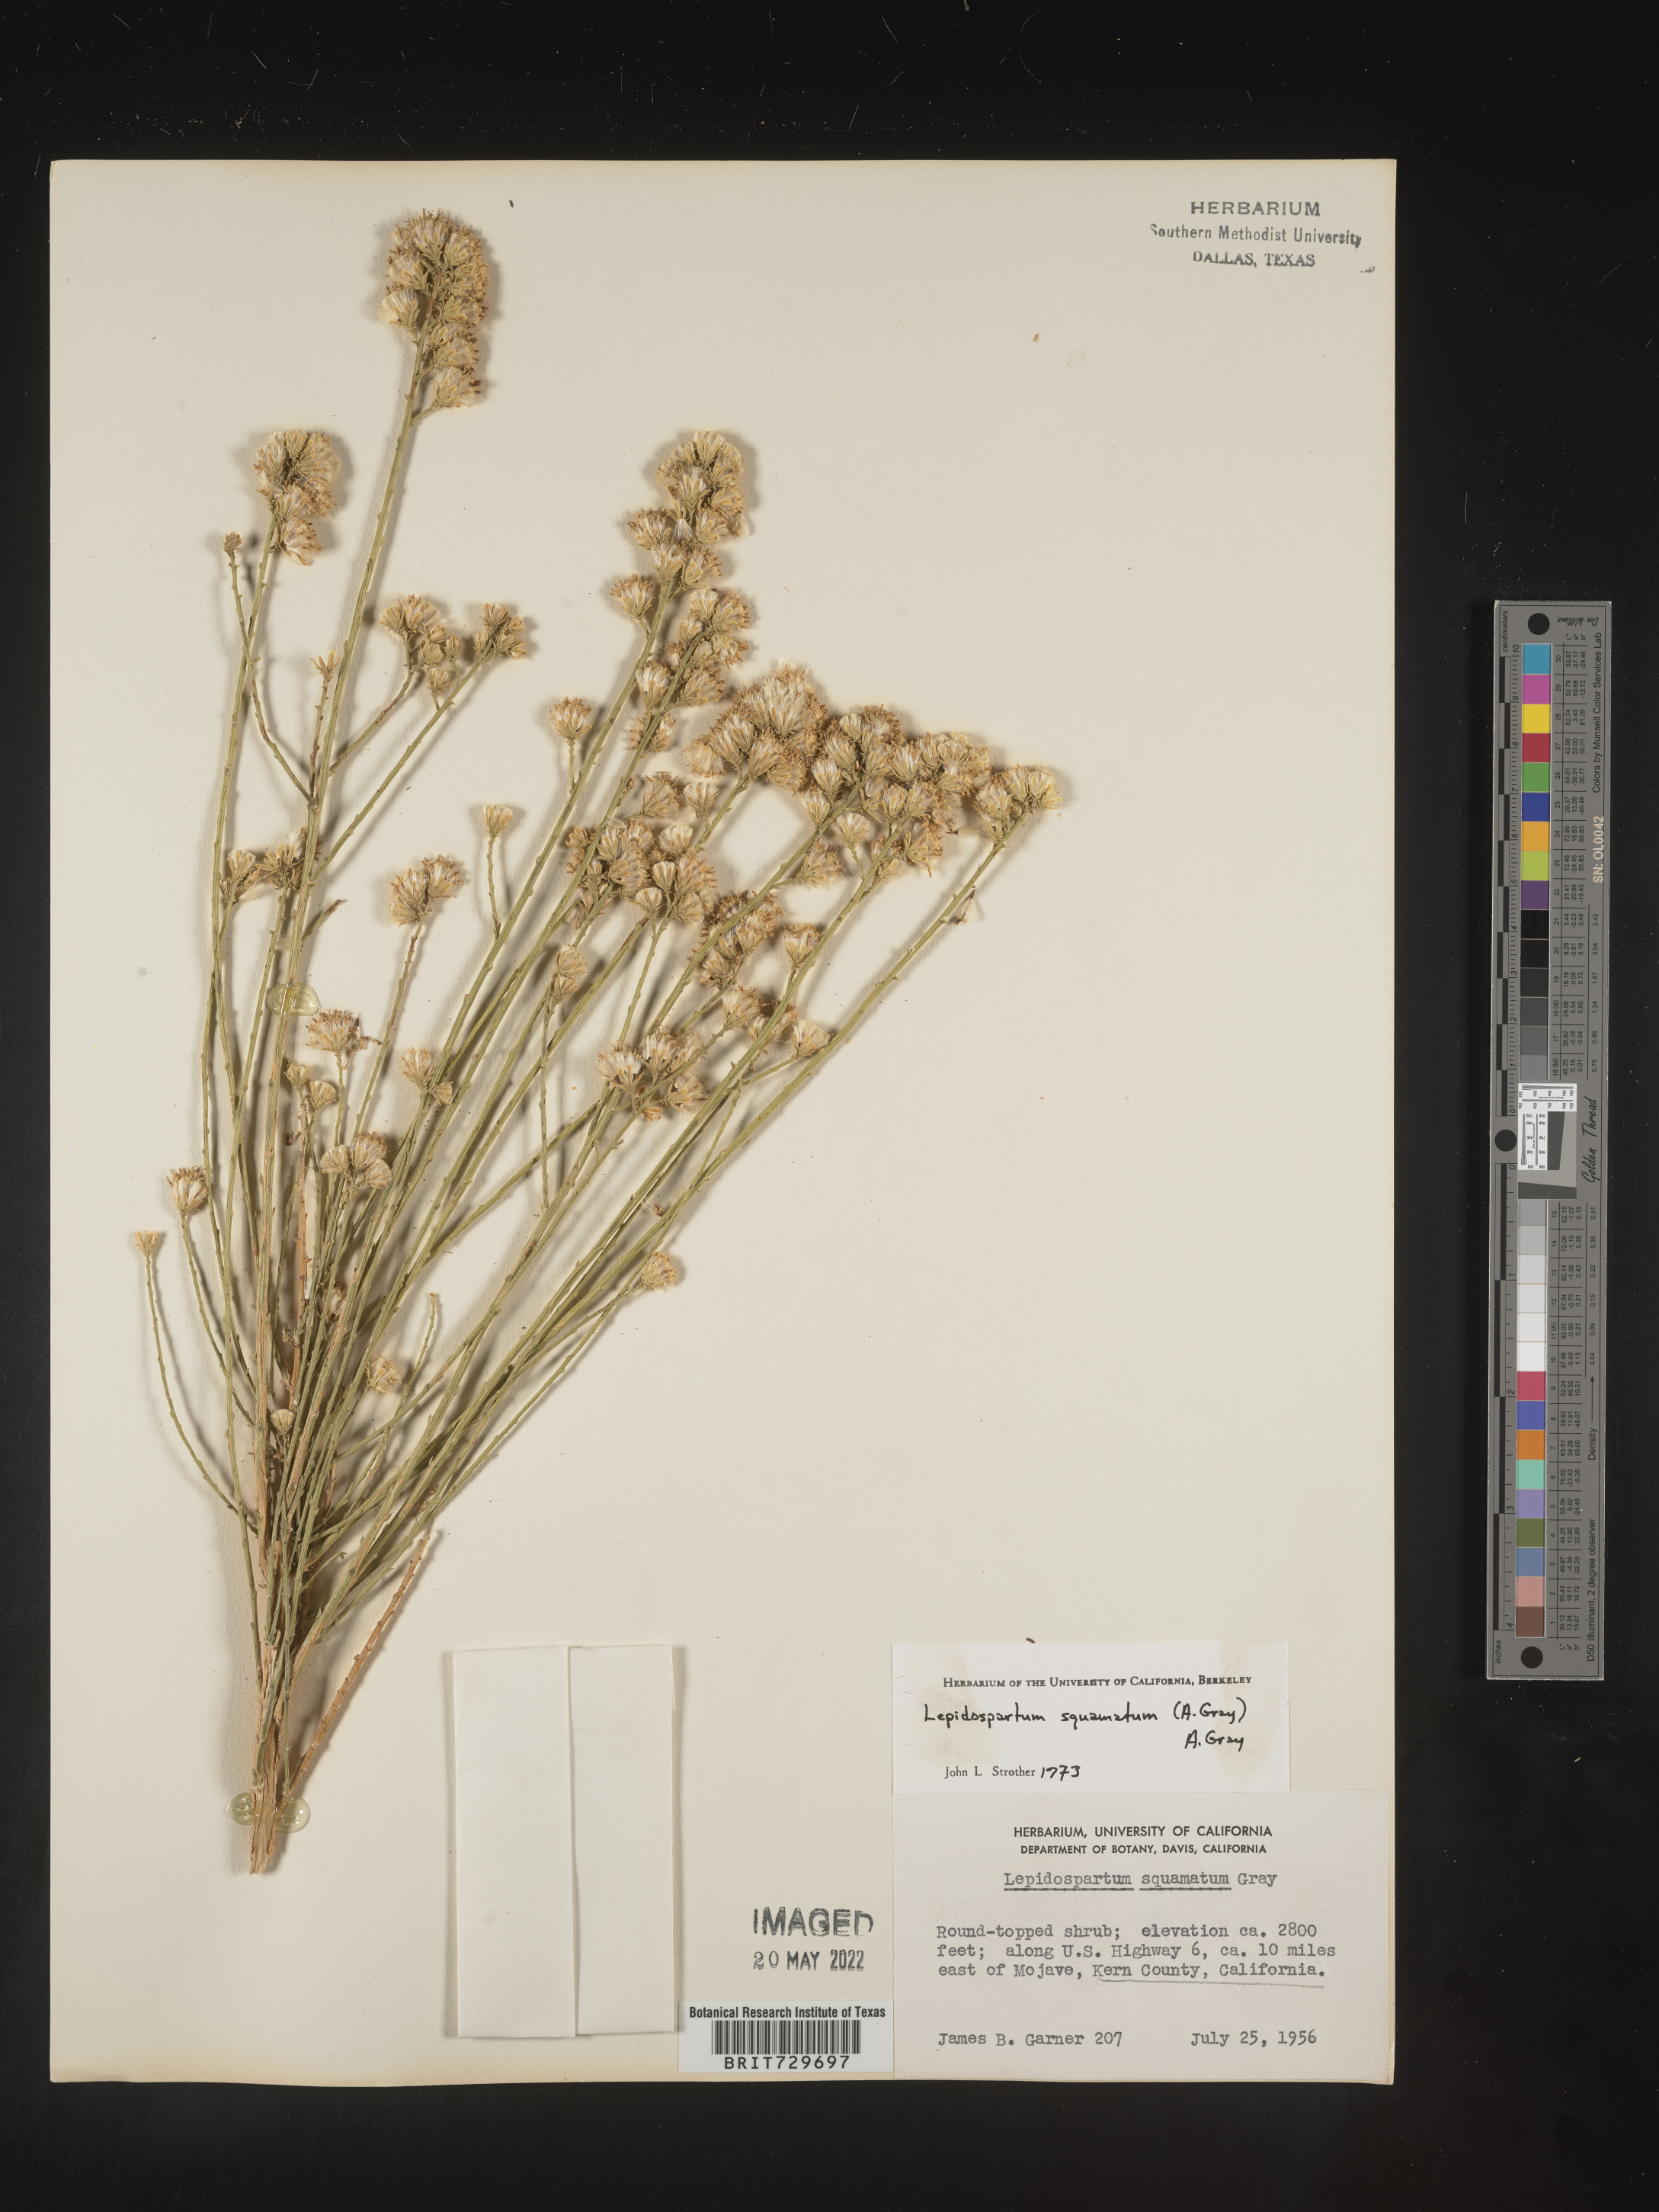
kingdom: Plantae
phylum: Tracheophyta
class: Magnoliopsida
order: Asterales
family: Asteraceae
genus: Lepidospartum
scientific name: Lepidospartum squamatum
